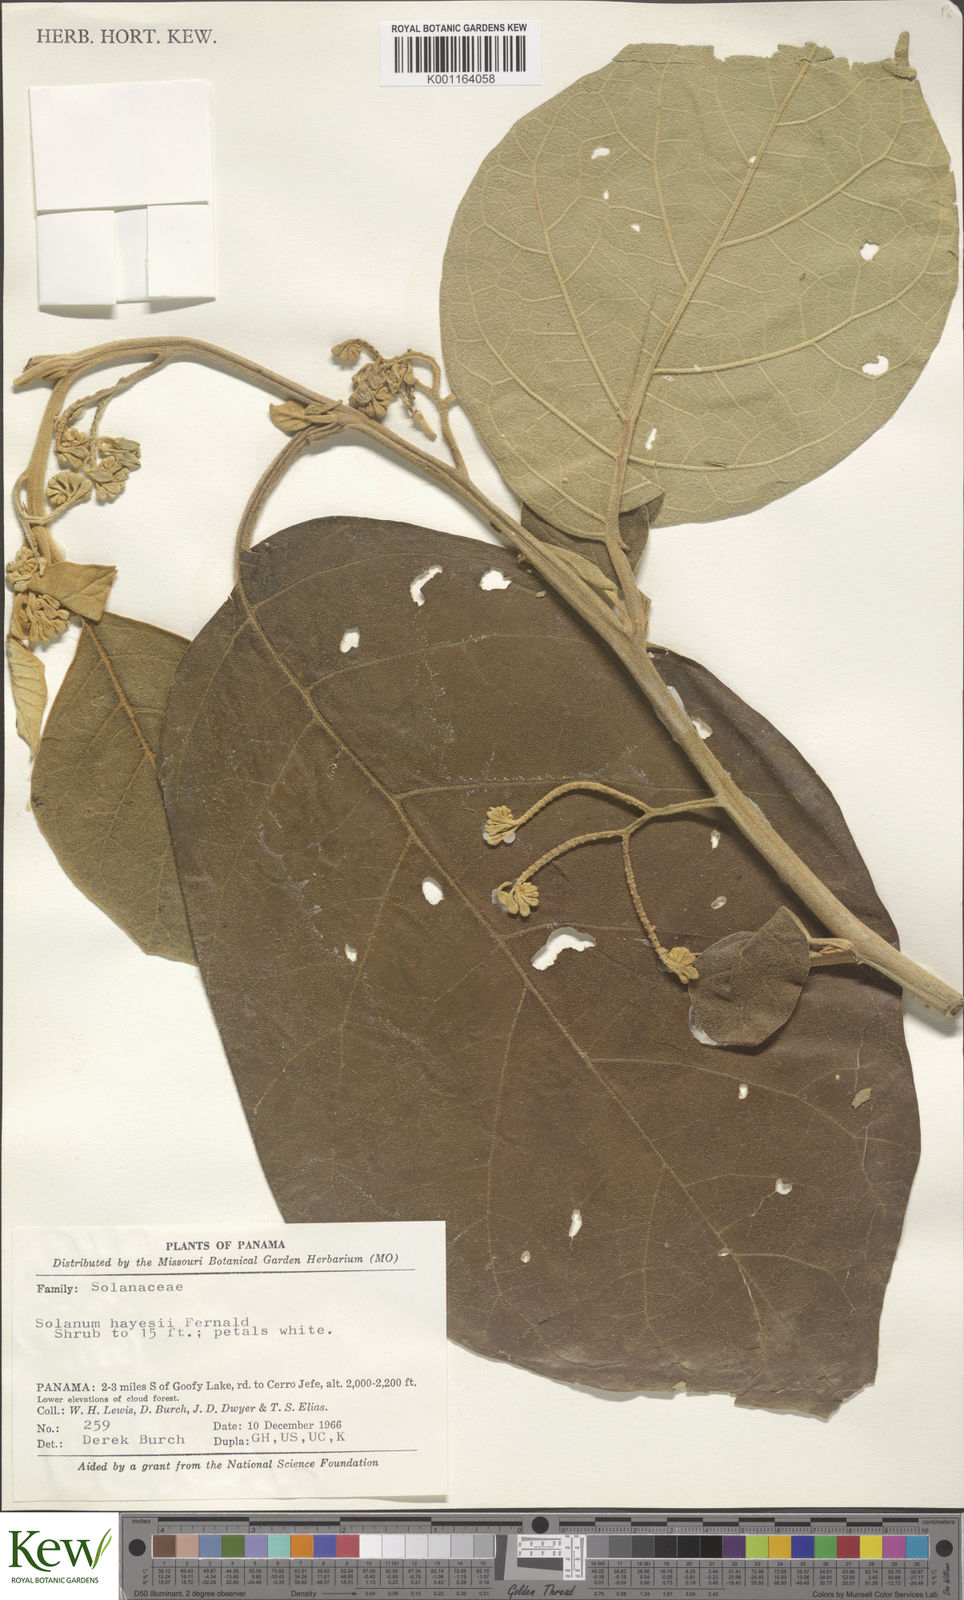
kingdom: Plantae
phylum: Tracheophyta
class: Magnoliopsida
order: Solanales
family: Solanaceae
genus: Solanum
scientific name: Solanum hayesii
